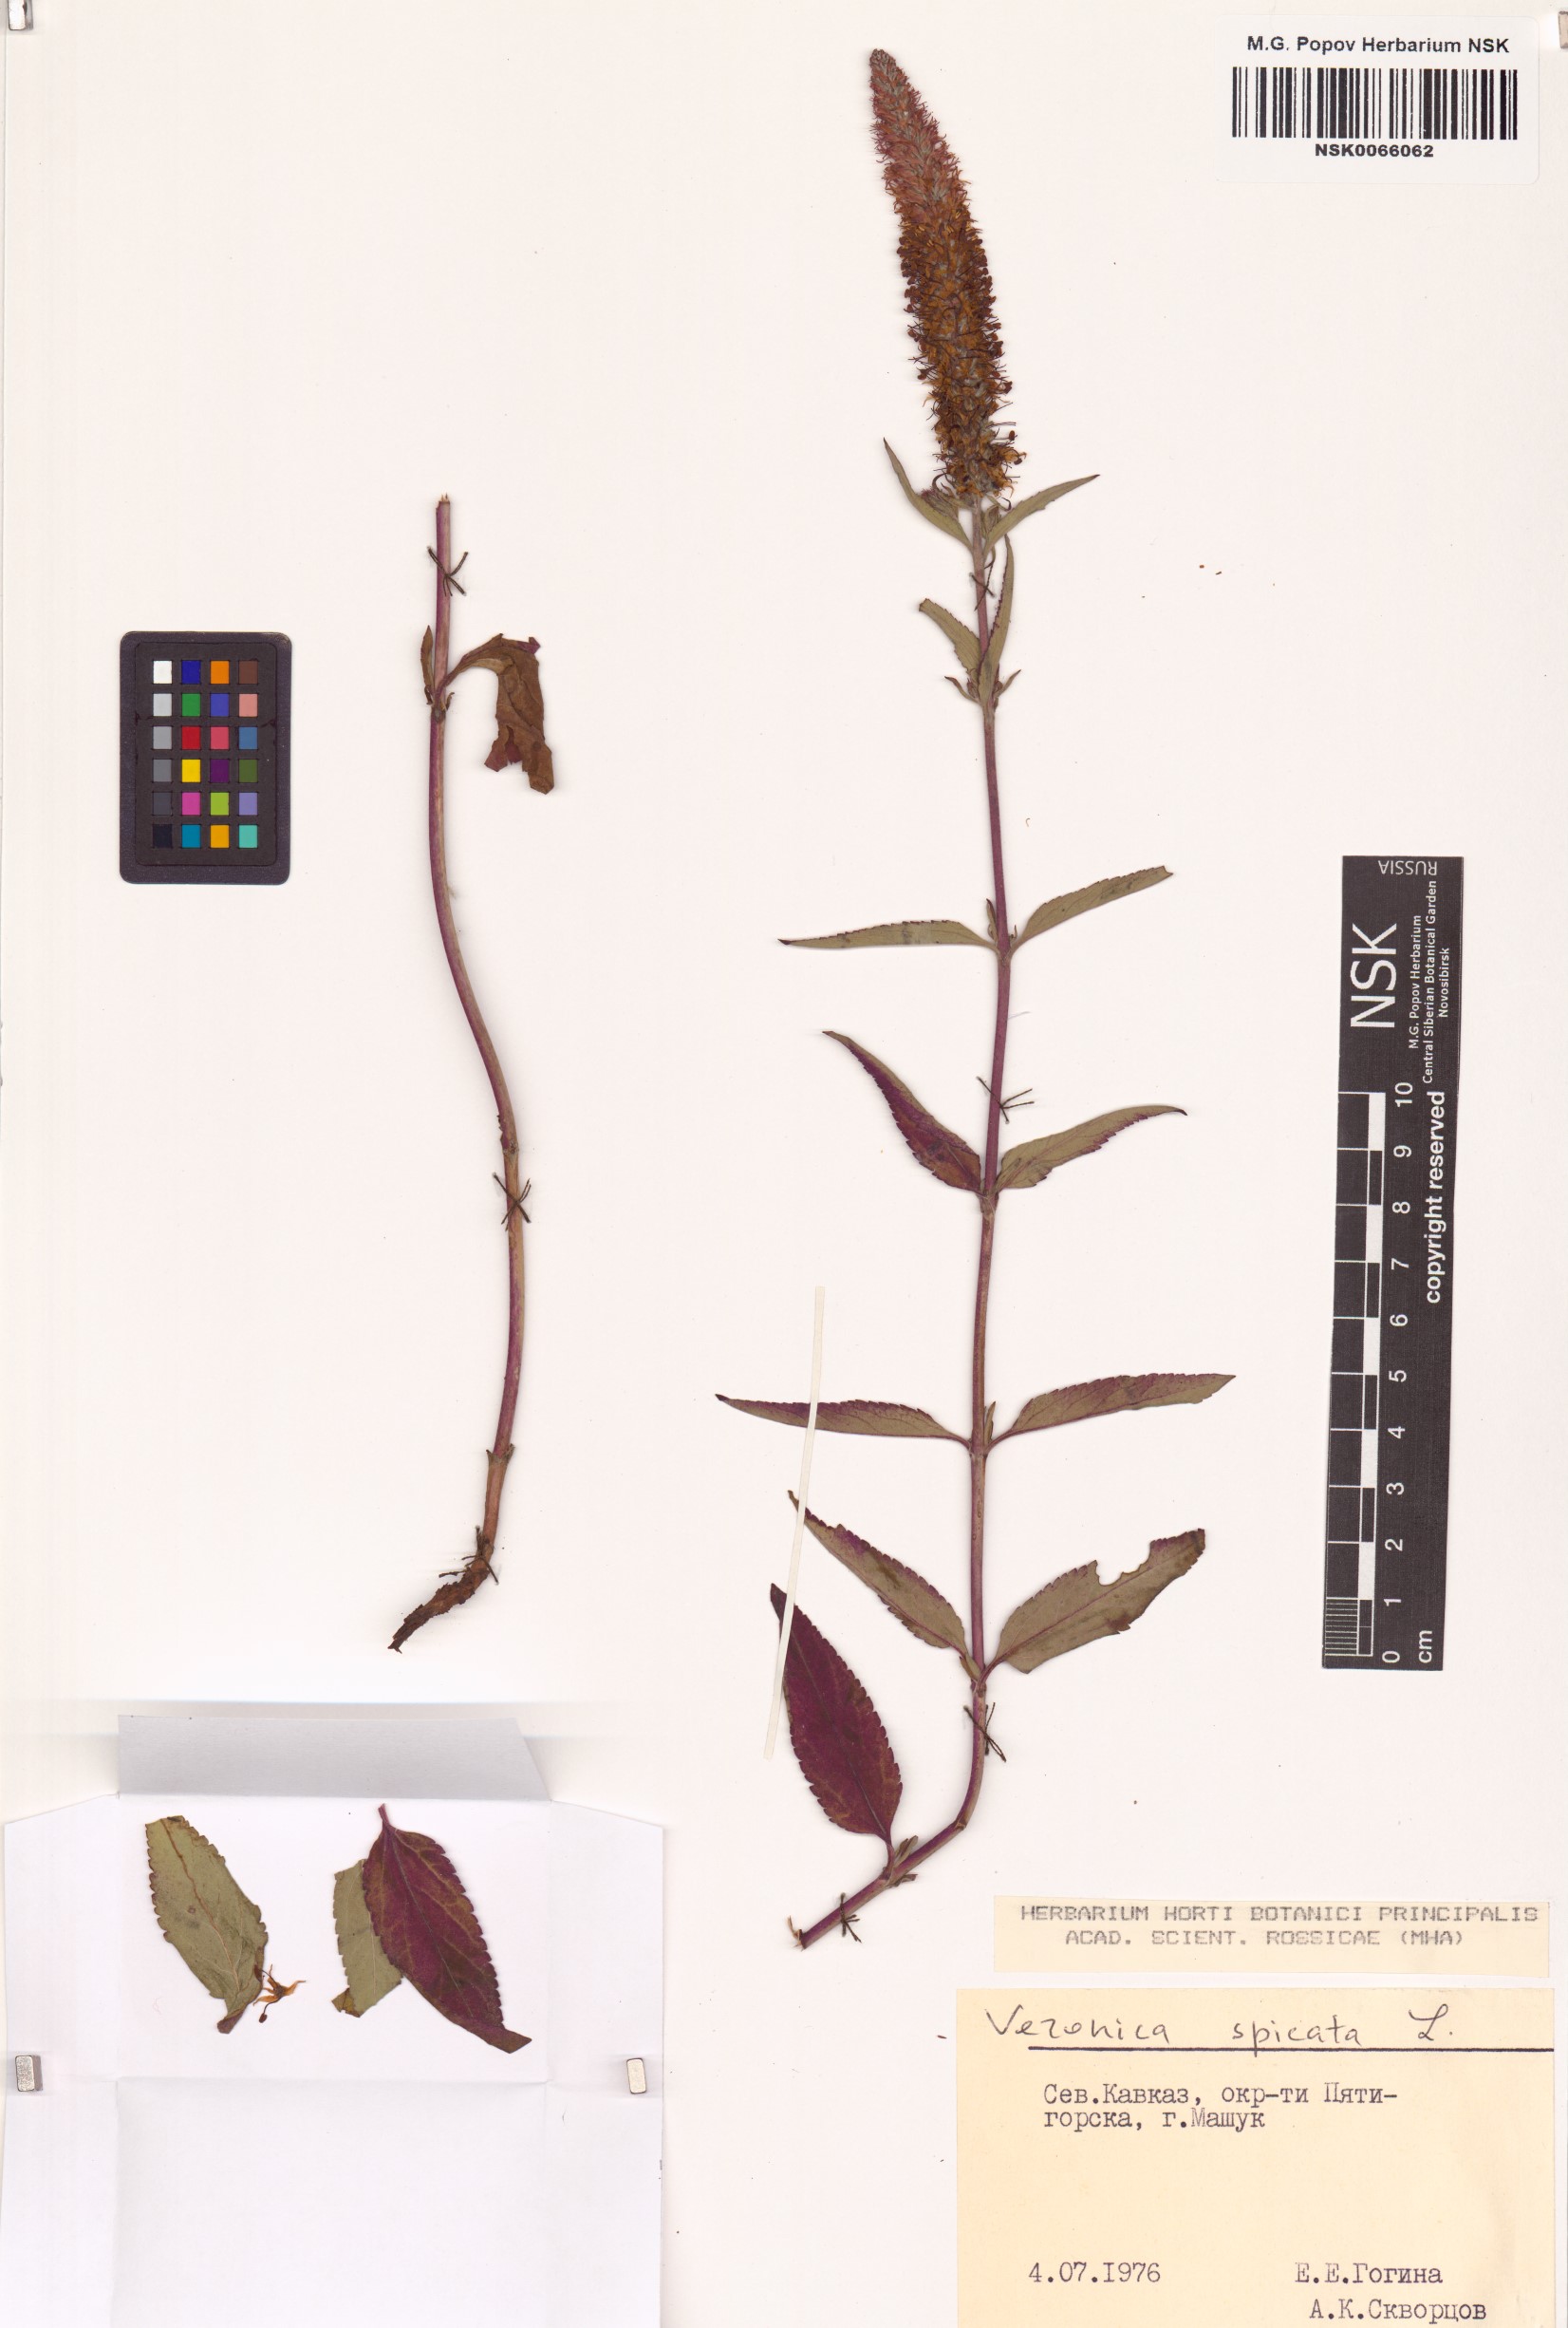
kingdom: Plantae
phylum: Tracheophyta
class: Magnoliopsida
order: Lamiales
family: Plantaginaceae
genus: Veronica
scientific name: Veronica spicata
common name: Spiked speedwell
